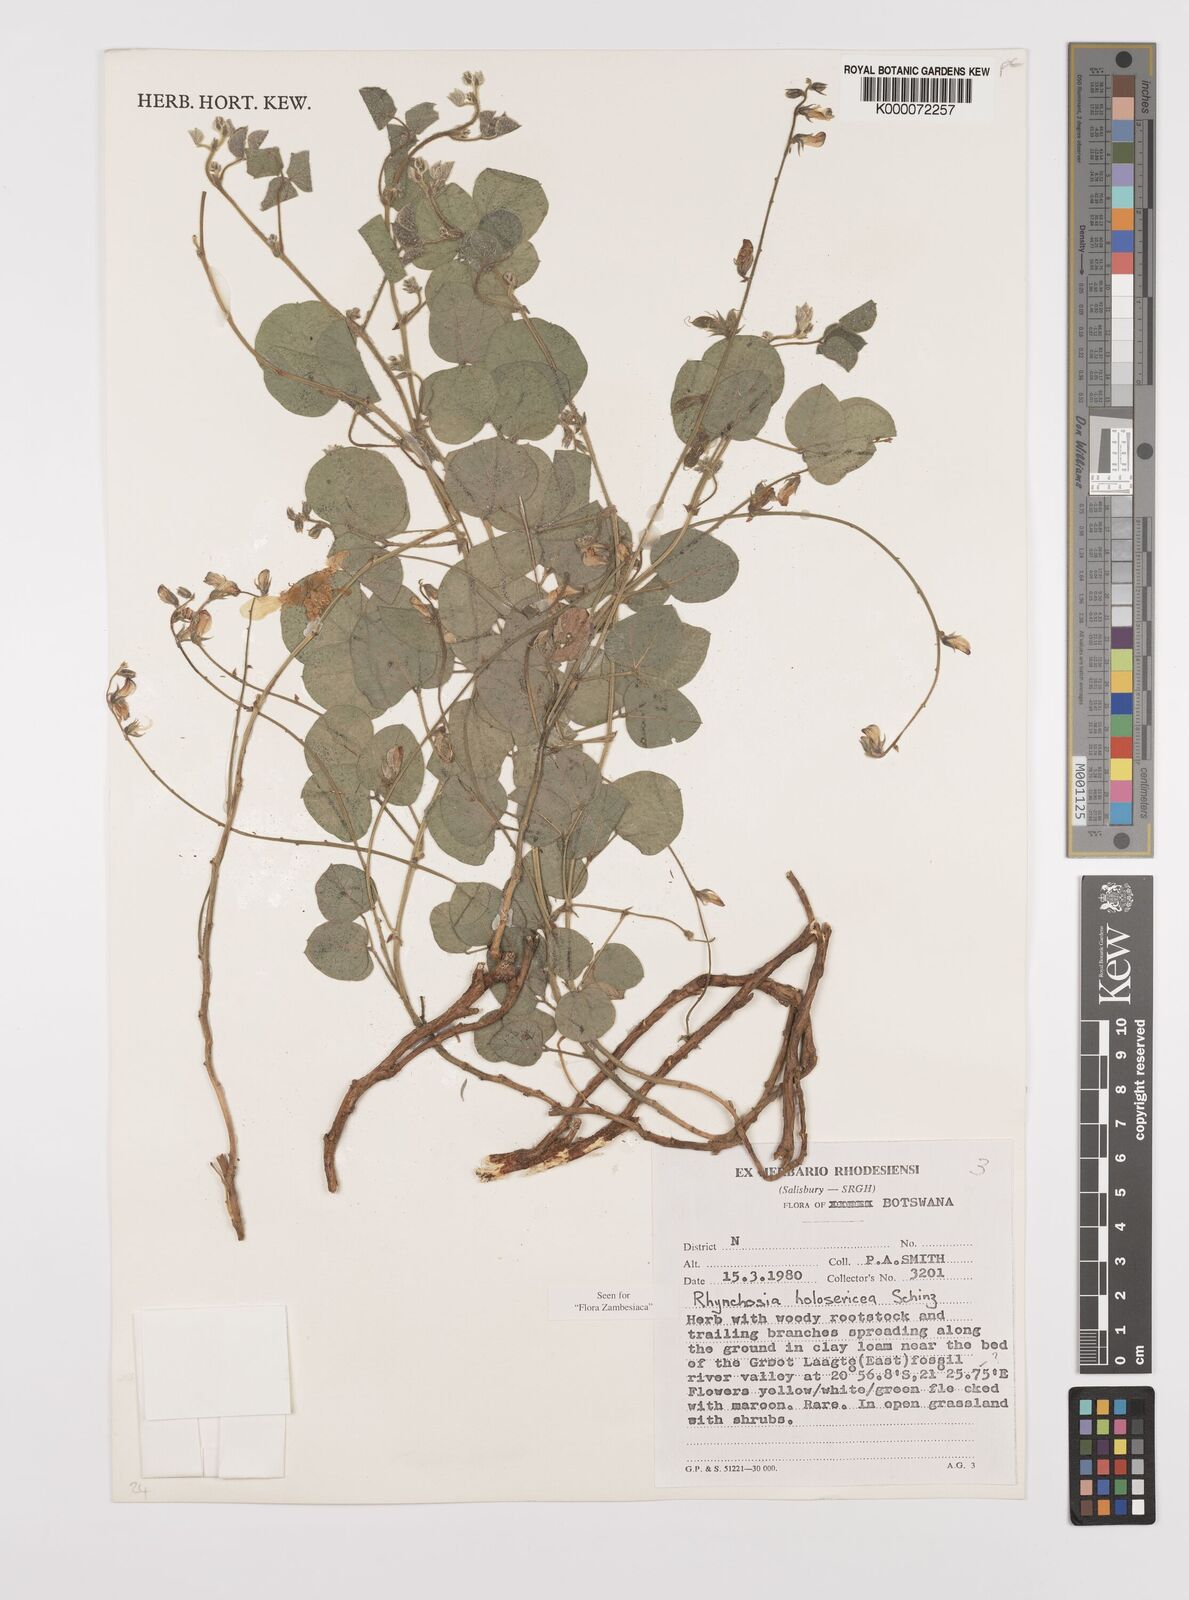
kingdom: Plantae
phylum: Tracheophyta
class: Magnoliopsida
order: Fabales
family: Fabaceae
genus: Rhynchosia
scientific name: Rhynchosia holosericea
